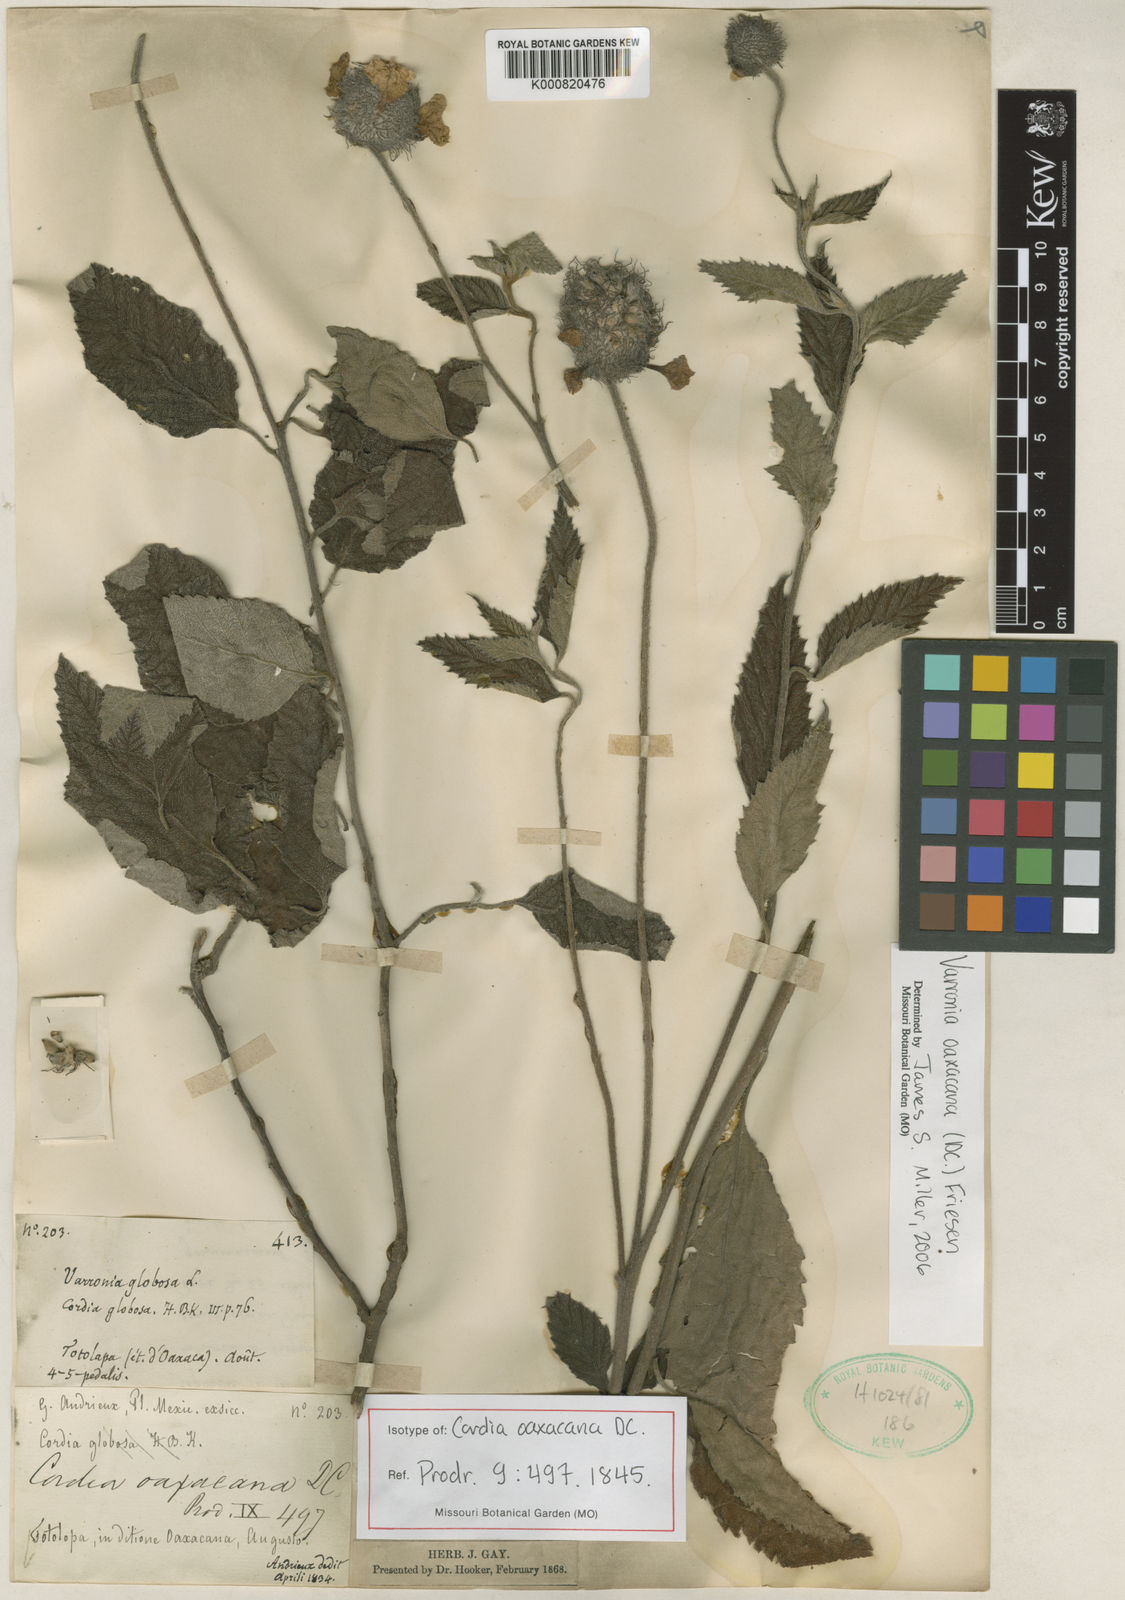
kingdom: Plantae
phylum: Tracheophyta
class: Magnoliopsida
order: Boraginales
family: Cordiaceae
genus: Varronia
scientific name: Varronia oaxacana
